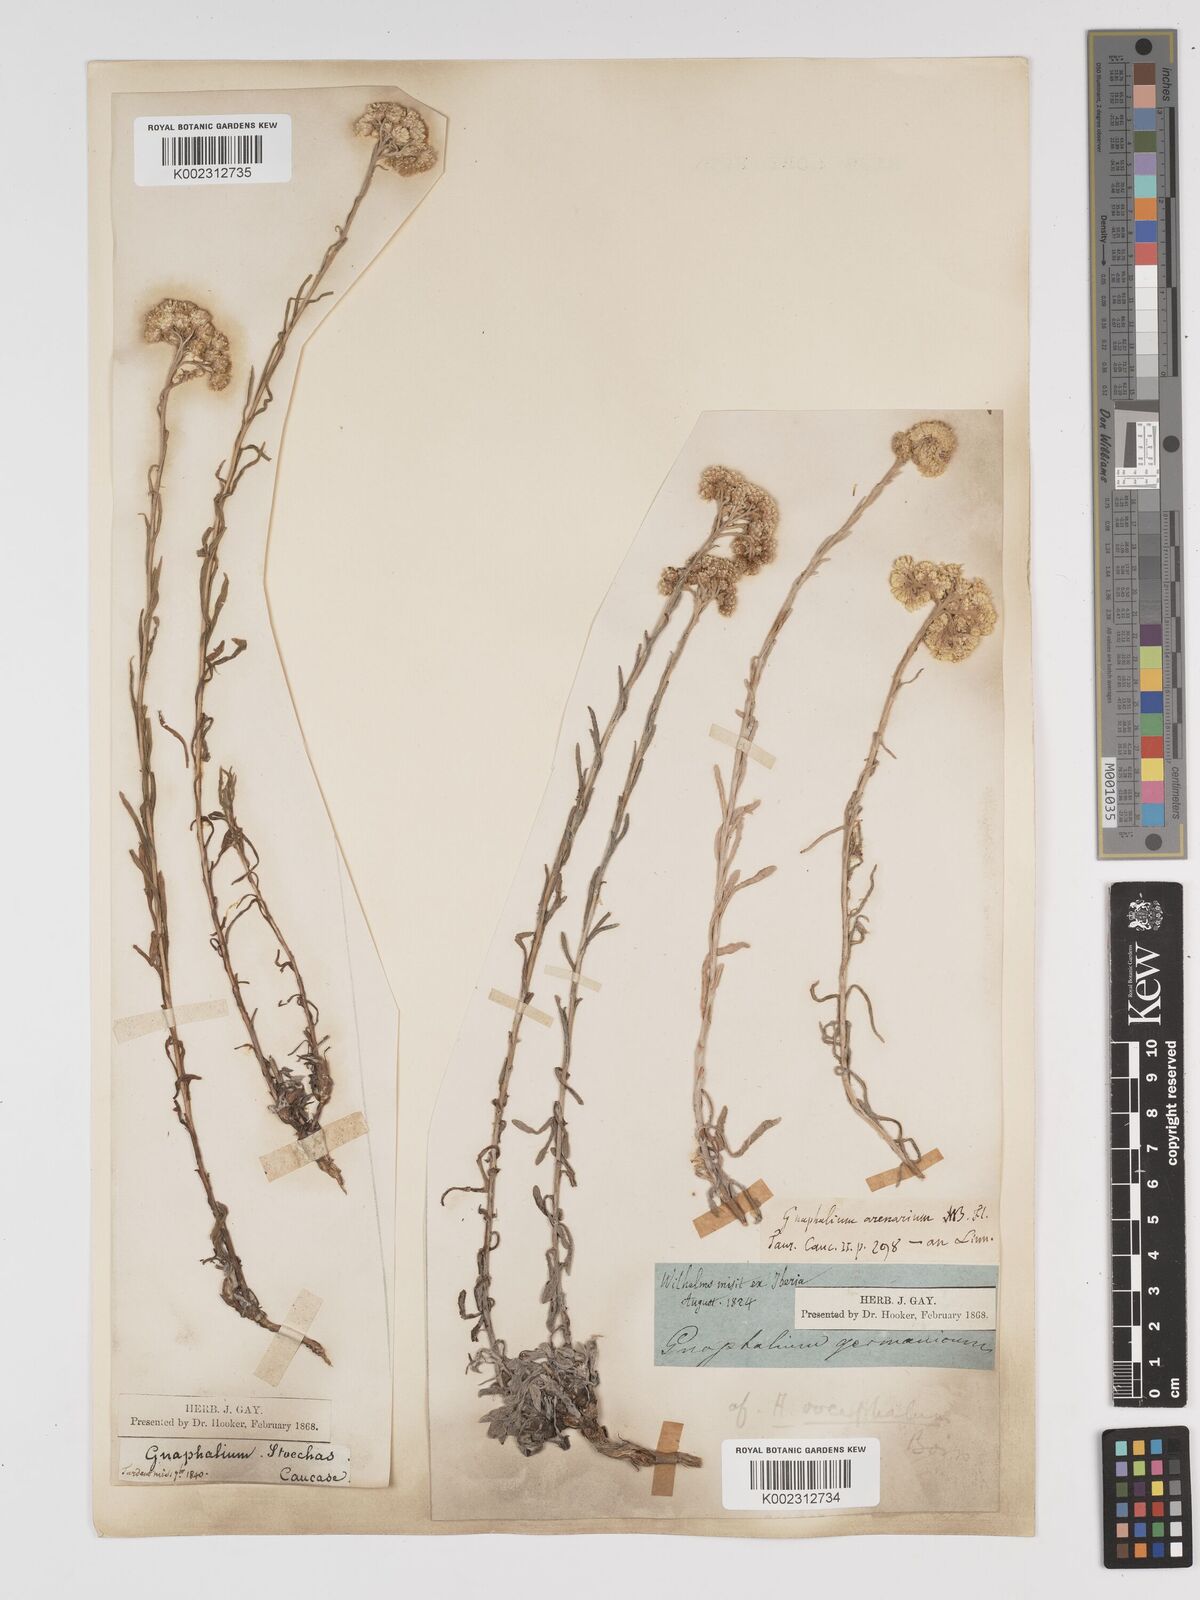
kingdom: Plantae
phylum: Tracheophyta
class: Magnoliopsida
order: Asterales
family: Asteraceae
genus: Helichrysum
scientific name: Helichrysum oocephalum
